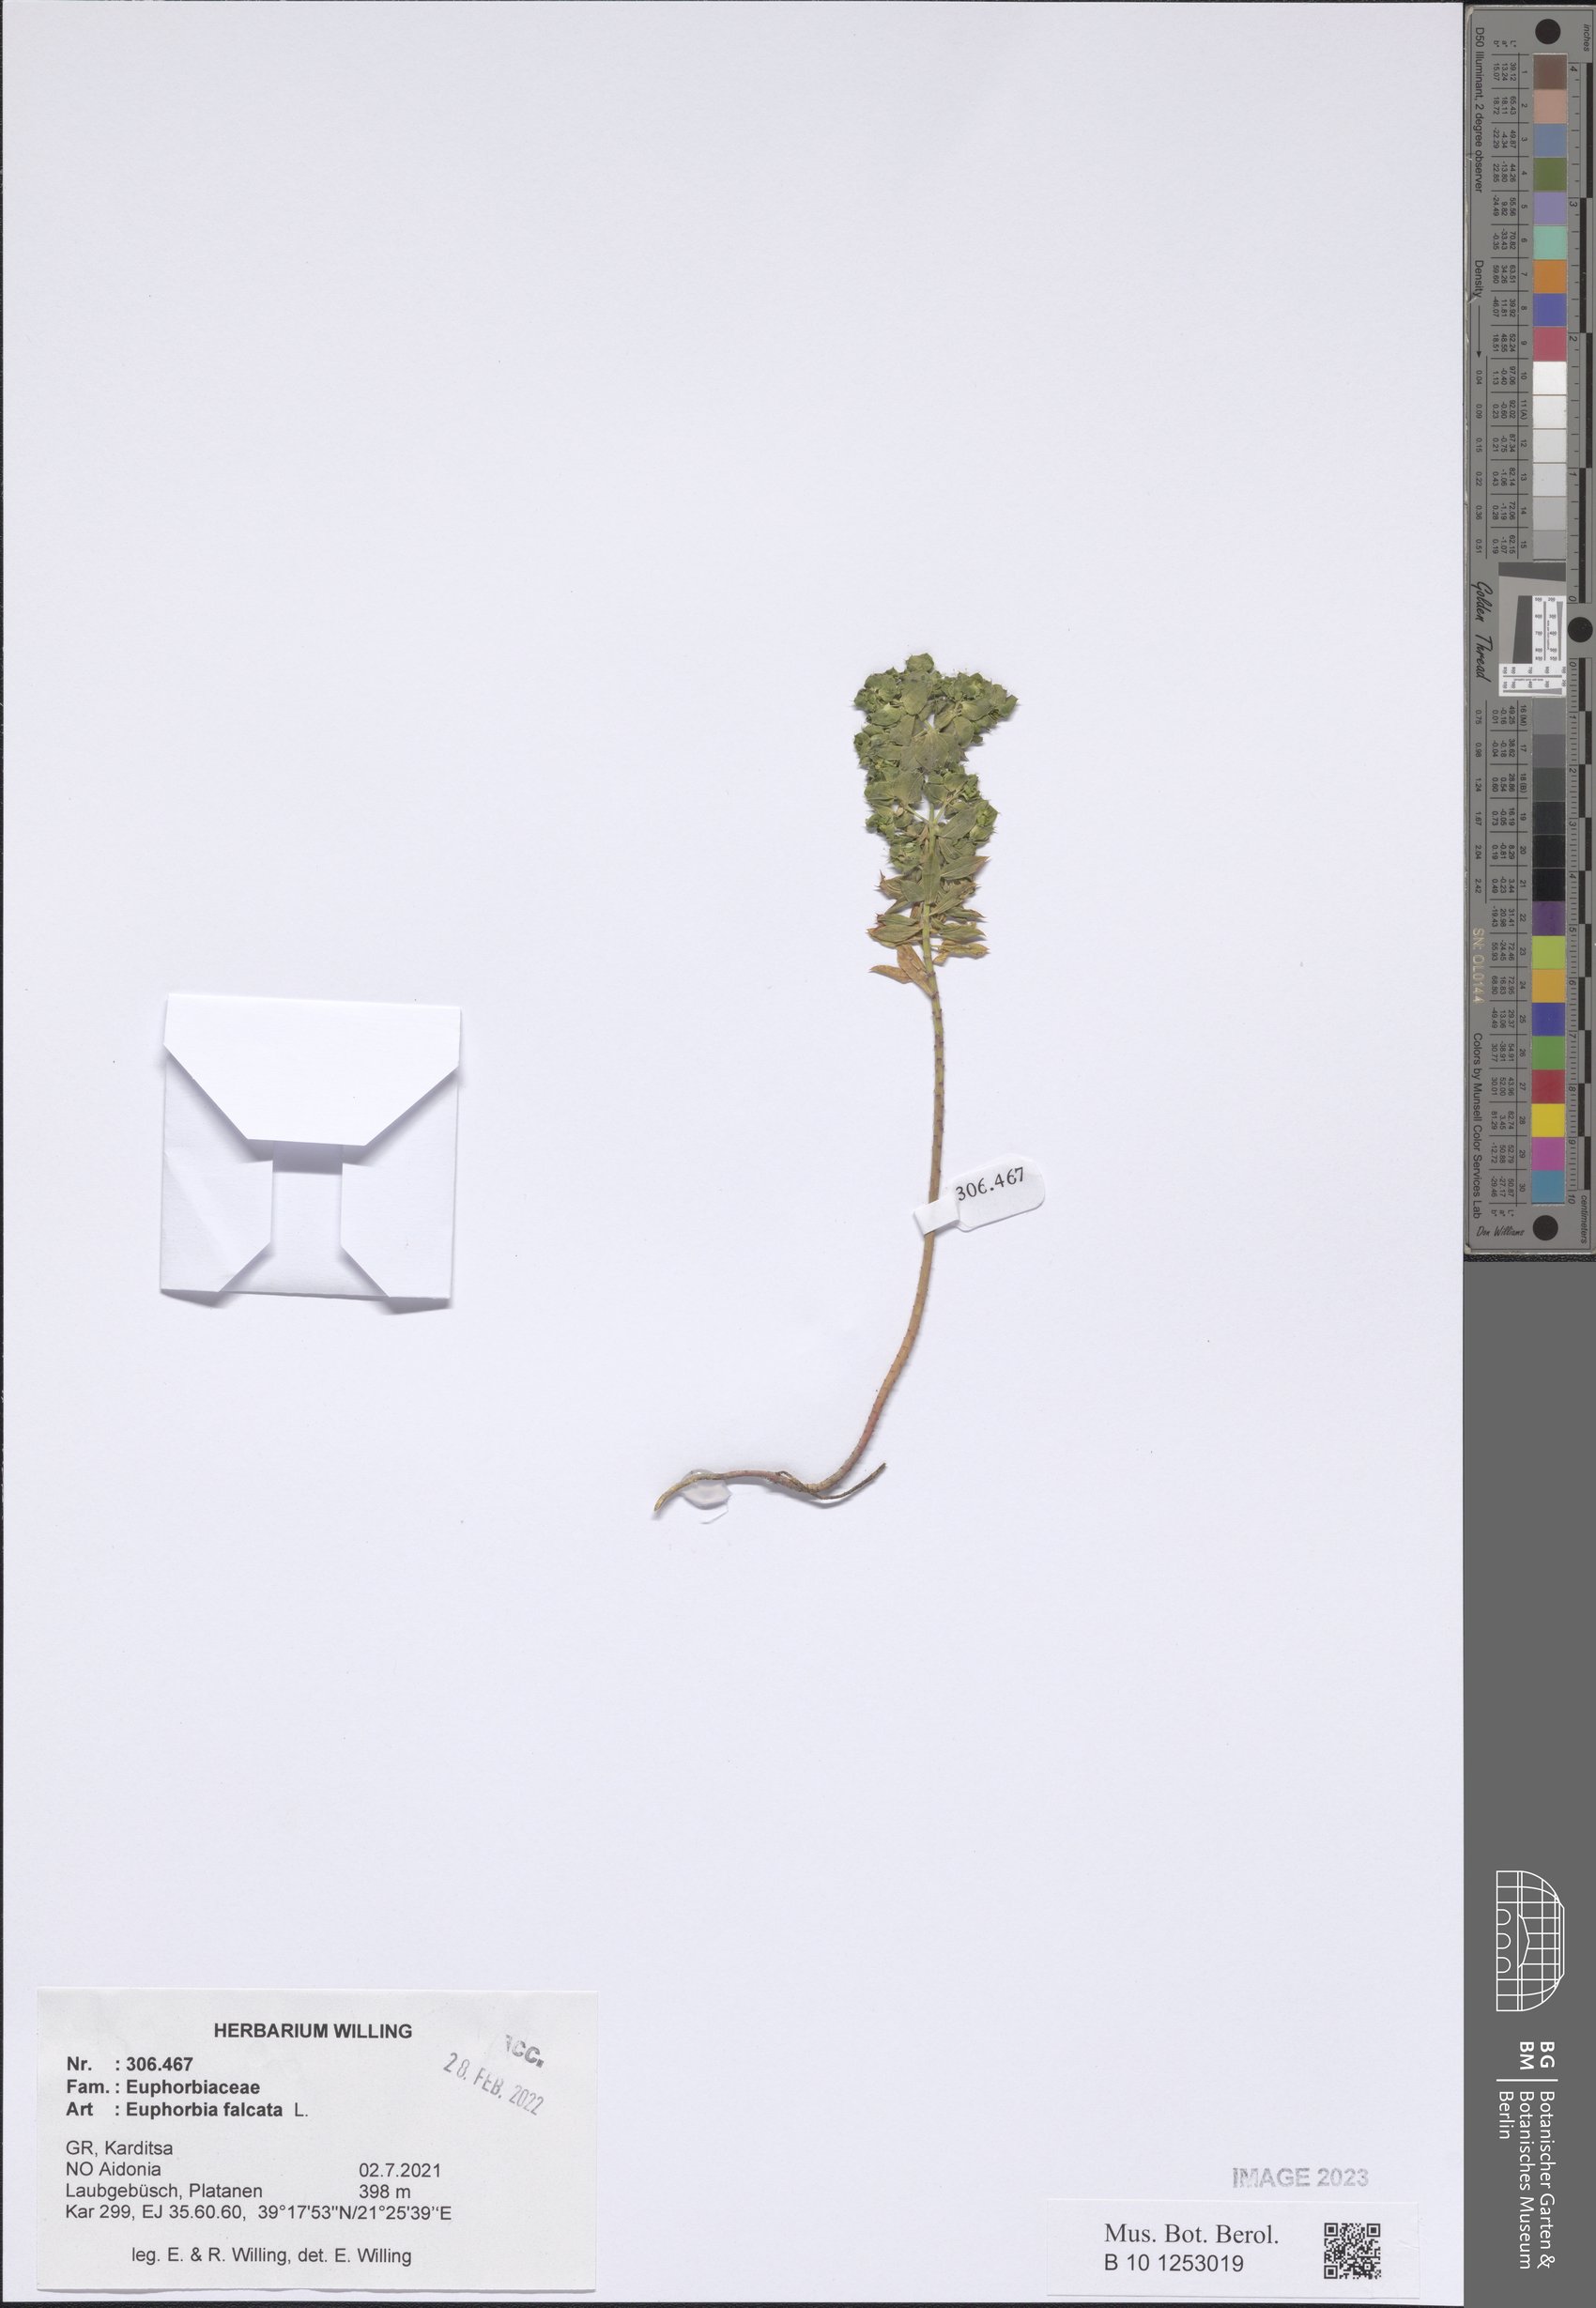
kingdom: Plantae
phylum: Tracheophyta
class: Magnoliopsida
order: Malpighiales
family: Euphorbiaceae
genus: Euphorbia
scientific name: Euphorbia falcata
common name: Sickle spurge
